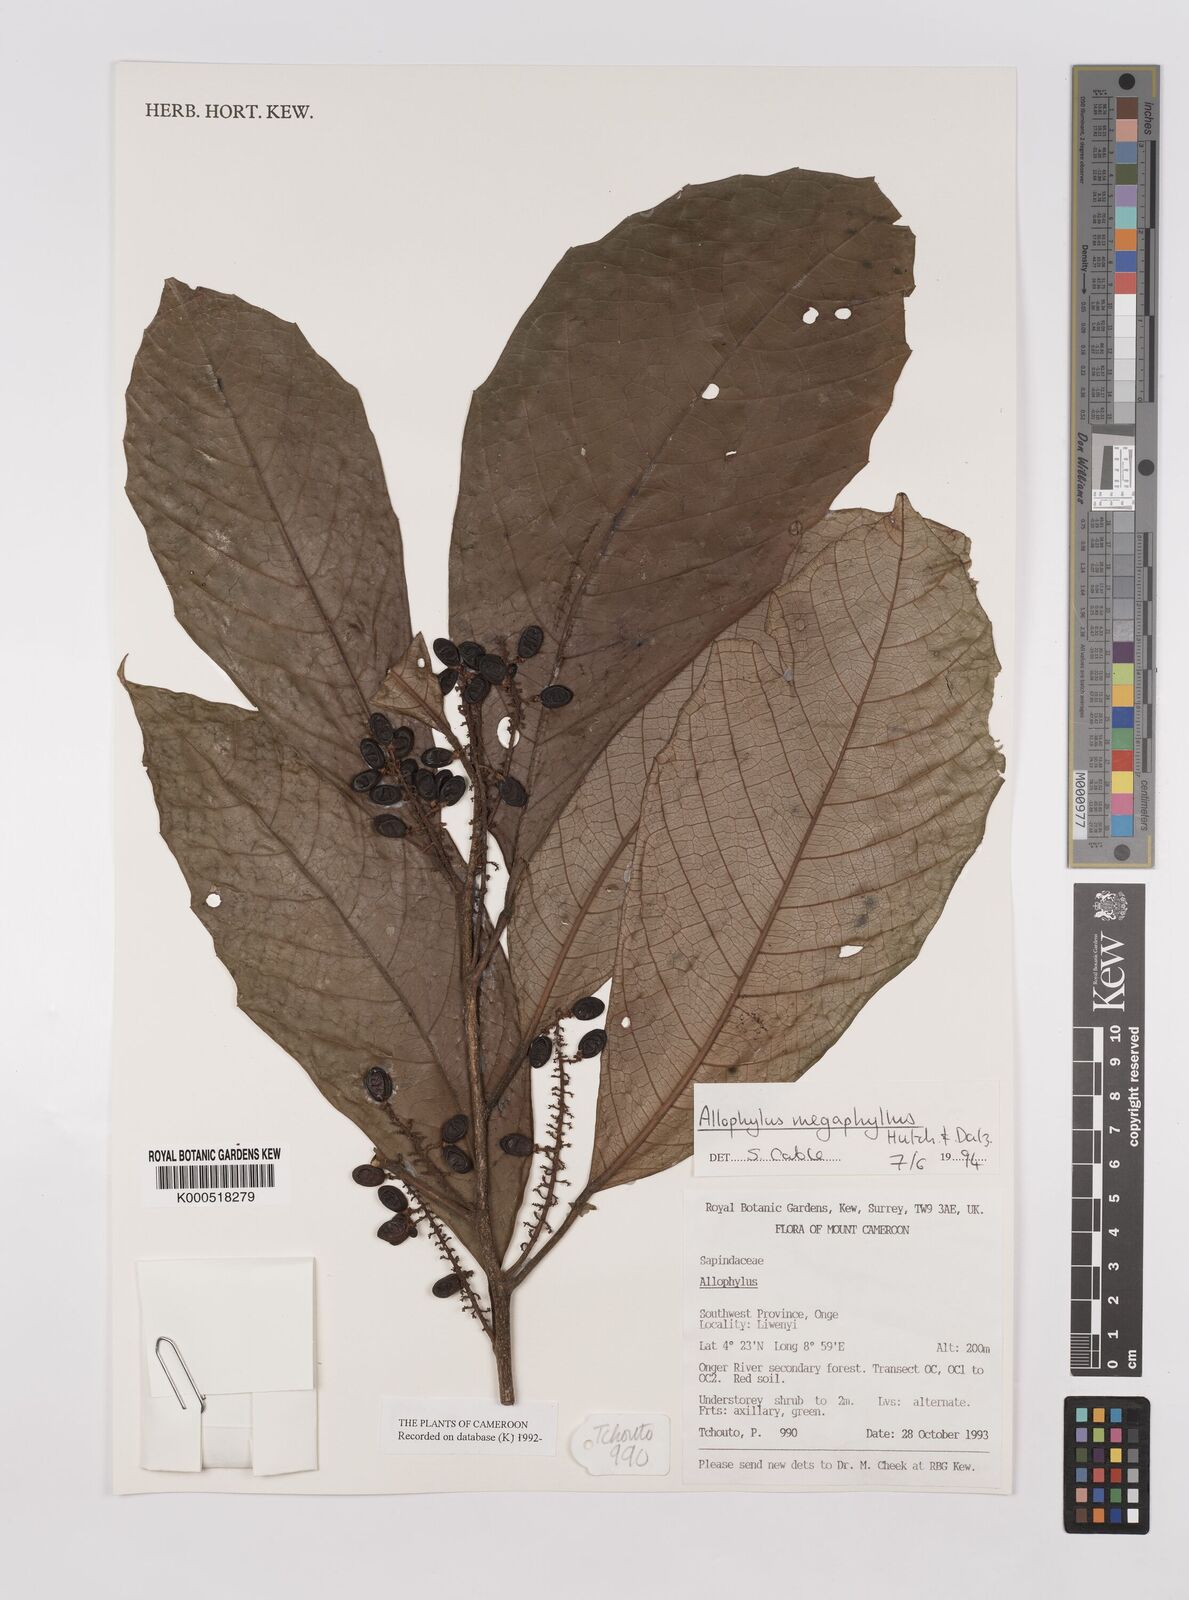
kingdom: Plantae
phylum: Tracheophyta
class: Magnoliopsida
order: Sapindales
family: Sapindaceae
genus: Allophylus
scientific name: Allophylus megaphyllus
